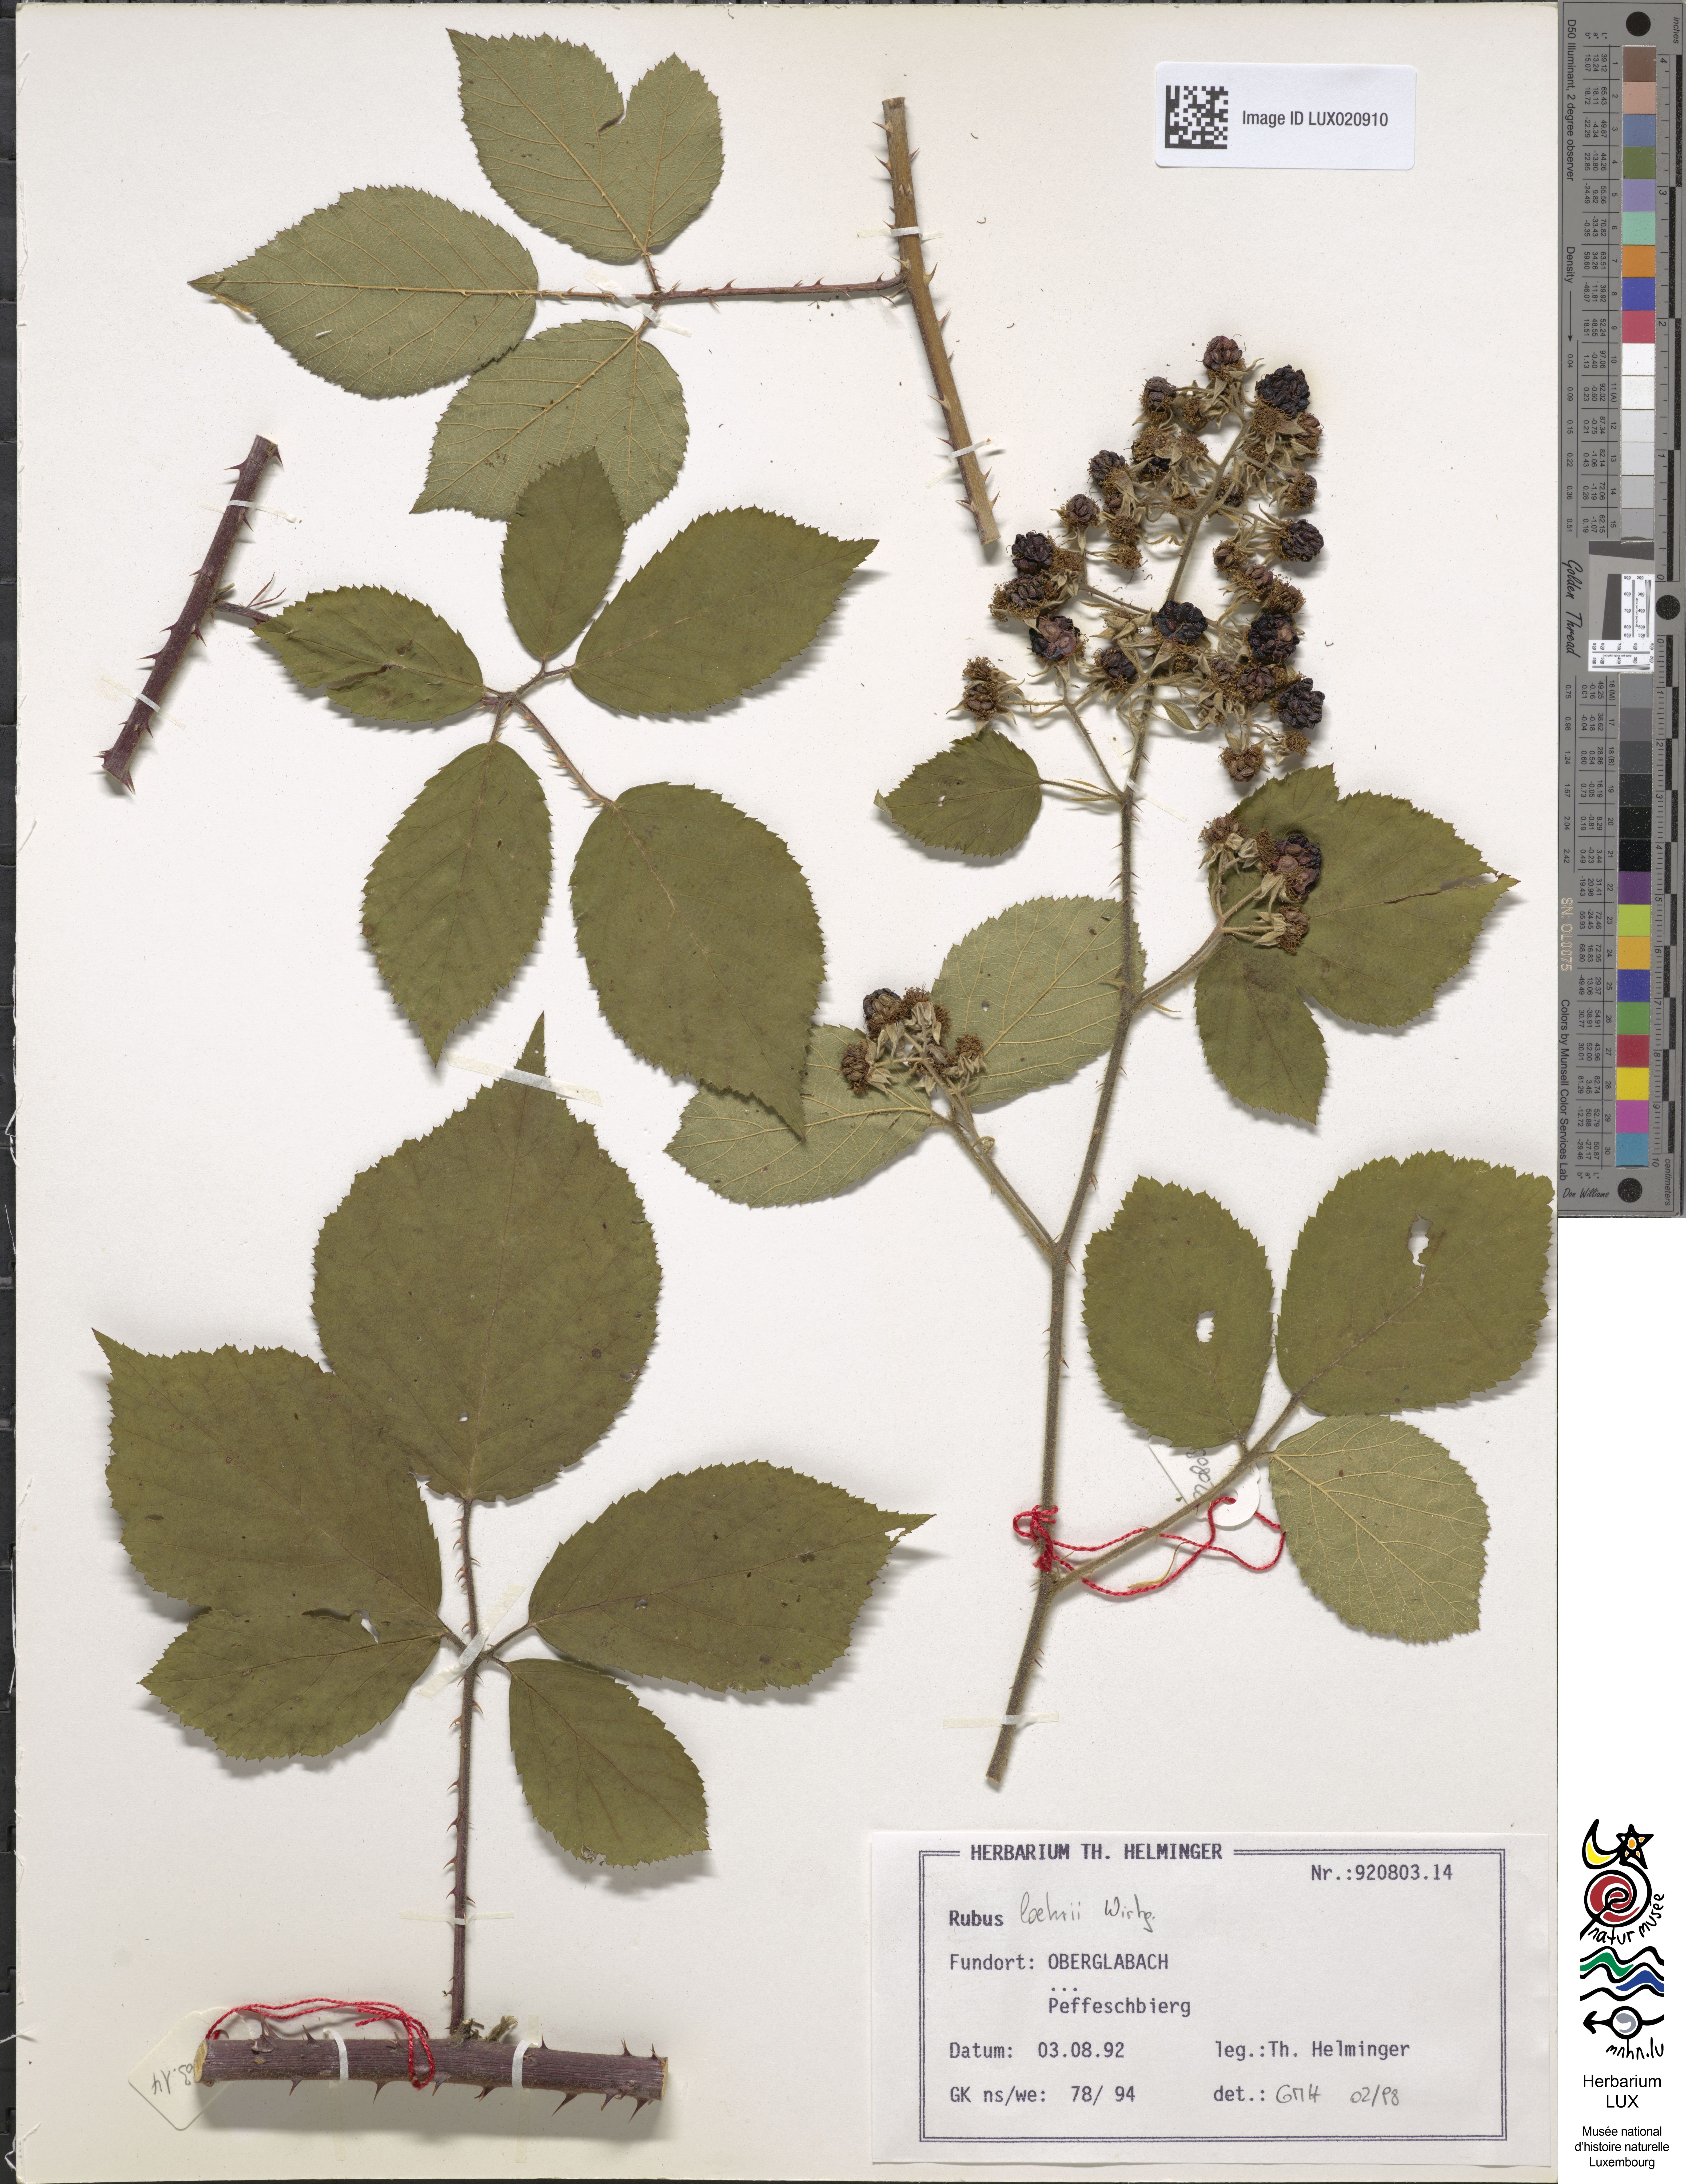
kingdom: Plantae
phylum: Tracheophyta
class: Magnoliopsida
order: Rosales
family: Rosaceae
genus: Rubus
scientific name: Rubus loehrii
